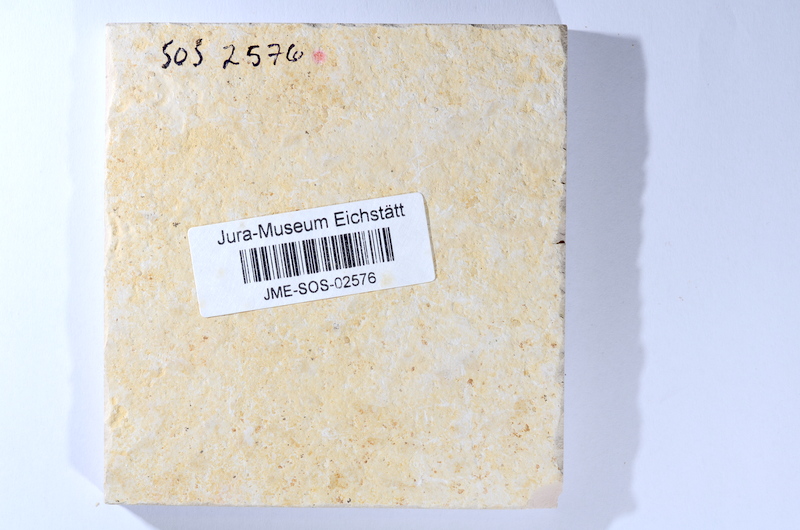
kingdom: Animalia
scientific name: Animalia
